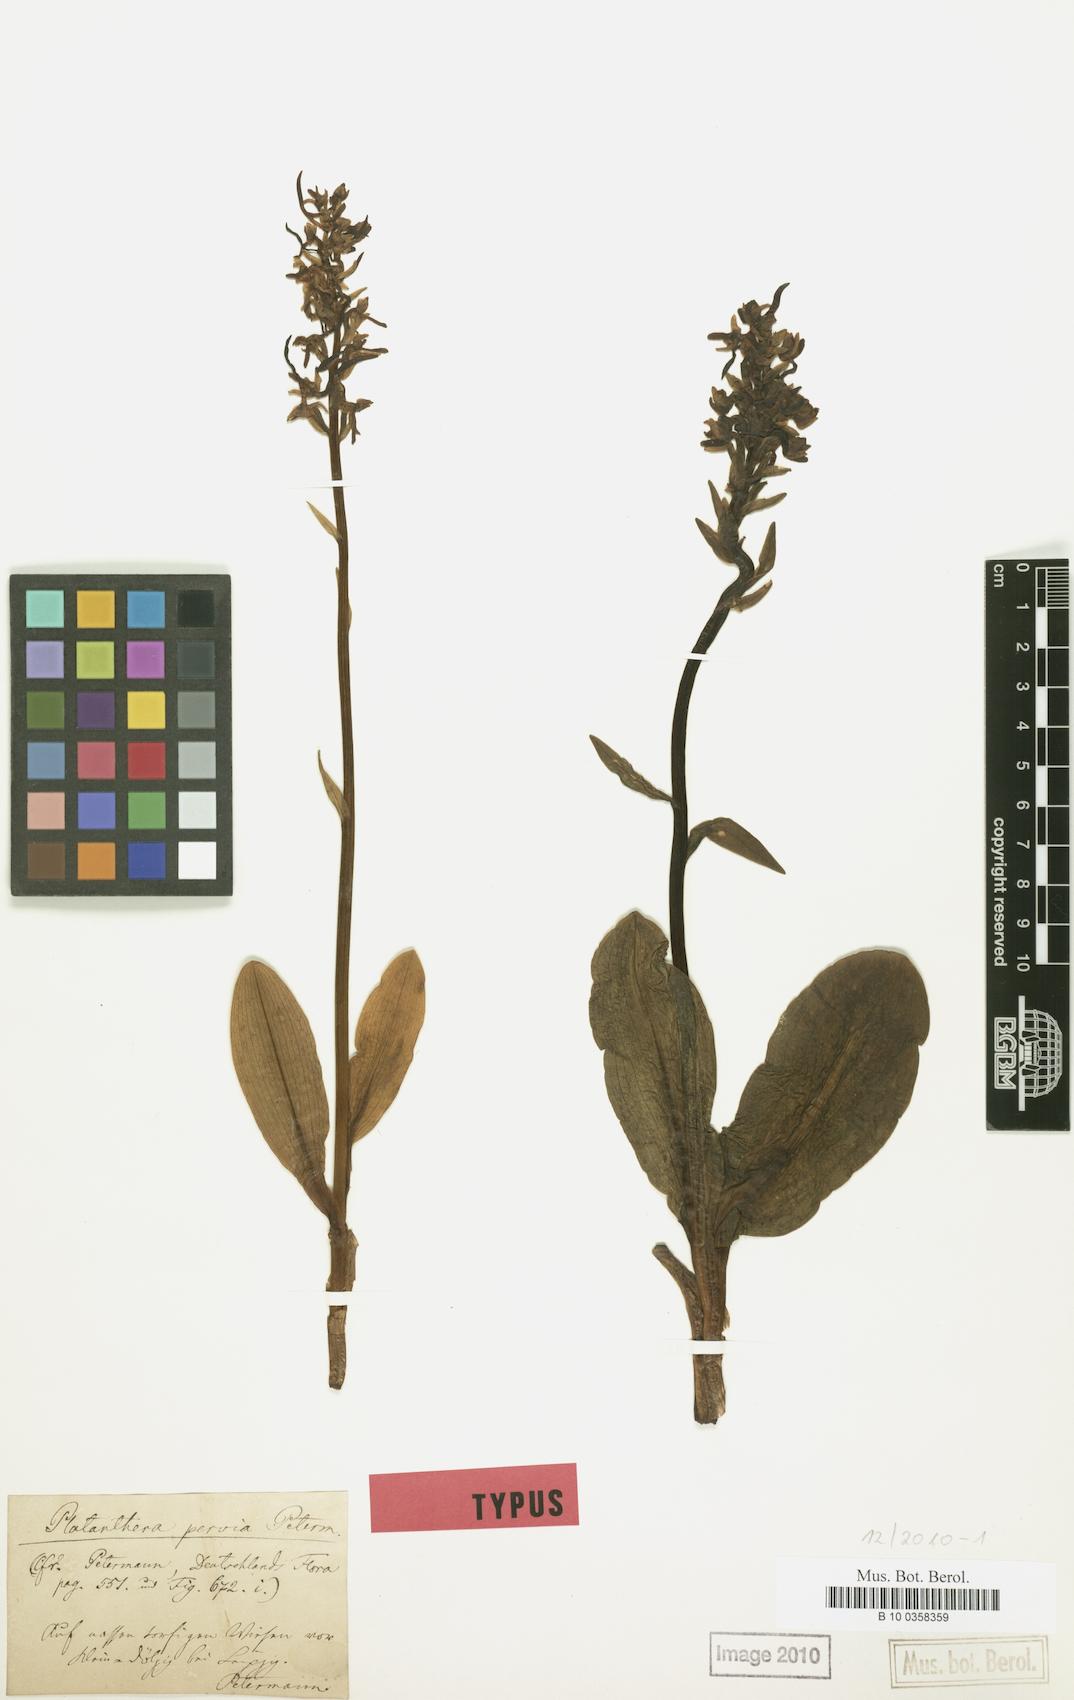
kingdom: Plantae
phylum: Tracheophyta
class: Liliopsida
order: Asparagales
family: Orchidaceae
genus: Platanthera
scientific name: Platanthera bifolia
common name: Lesser butterfly-orchid
